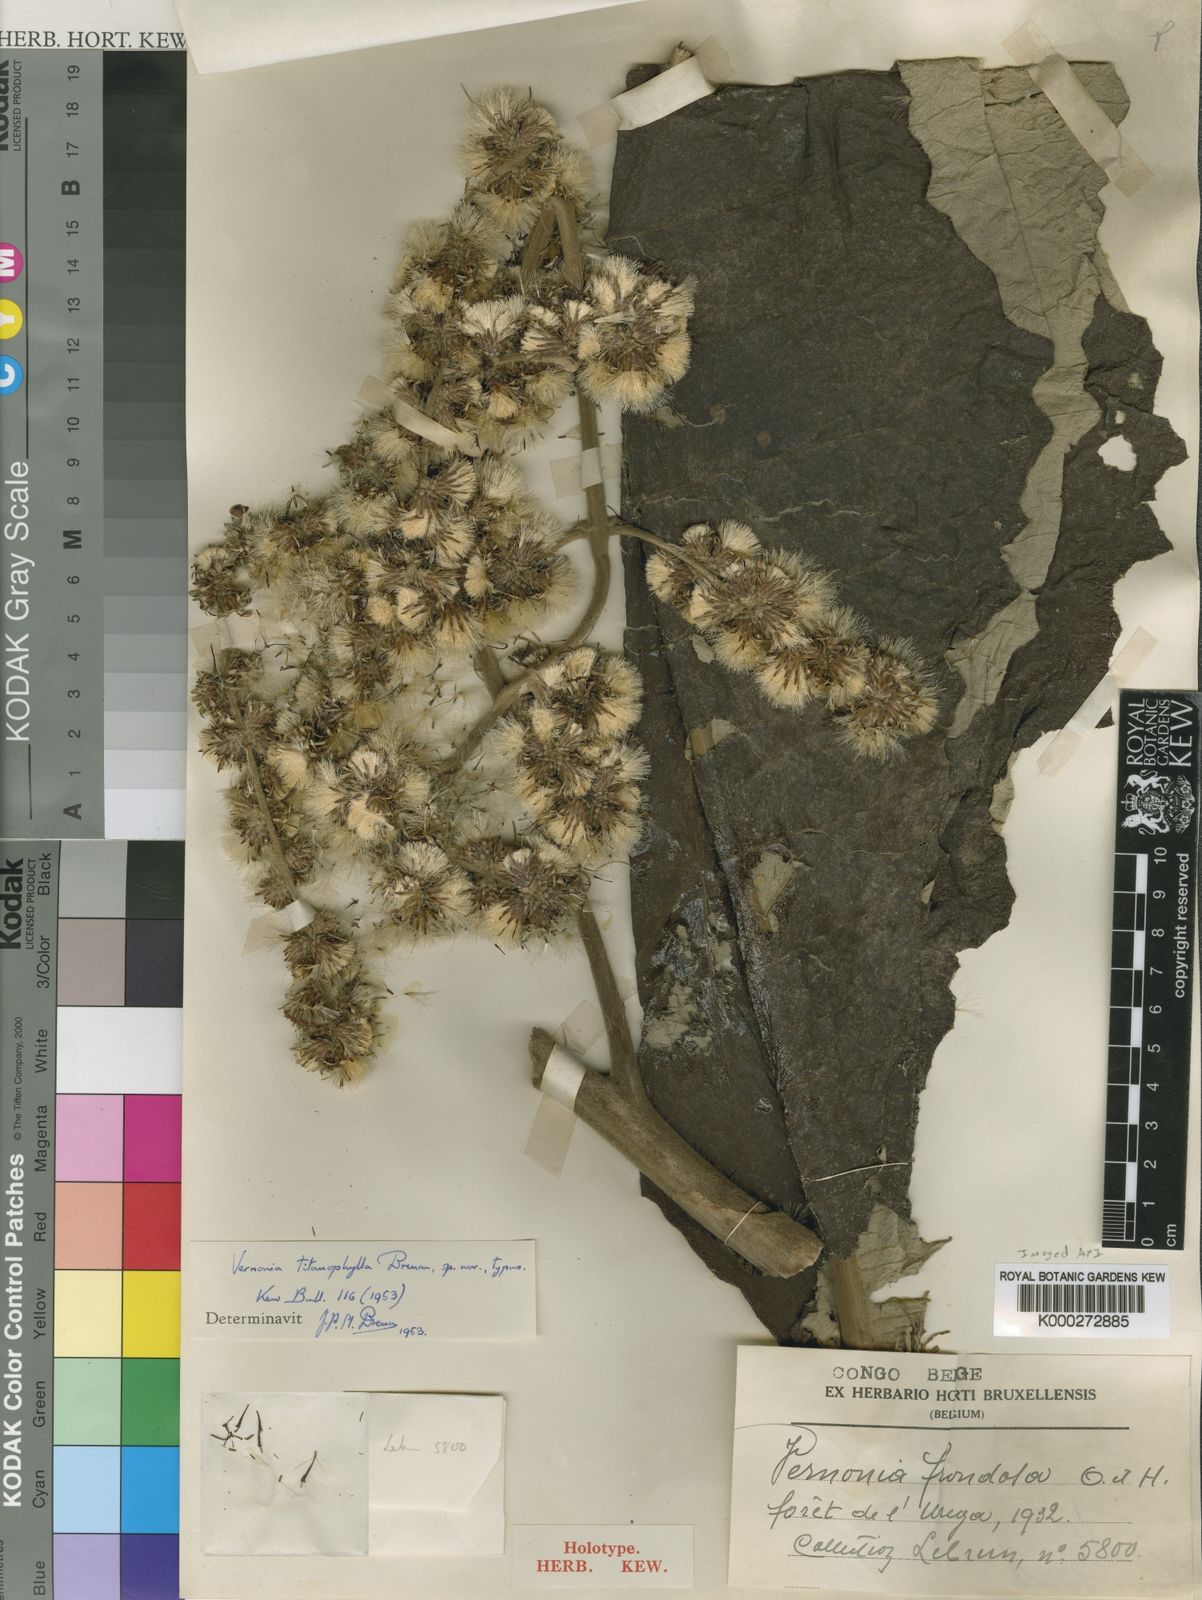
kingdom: Plantae
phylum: Tracheophyta
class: Magnoliopsida
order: Asterales
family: Asteraceae
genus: Brenandendron
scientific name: Brenandendron titanophyllum
